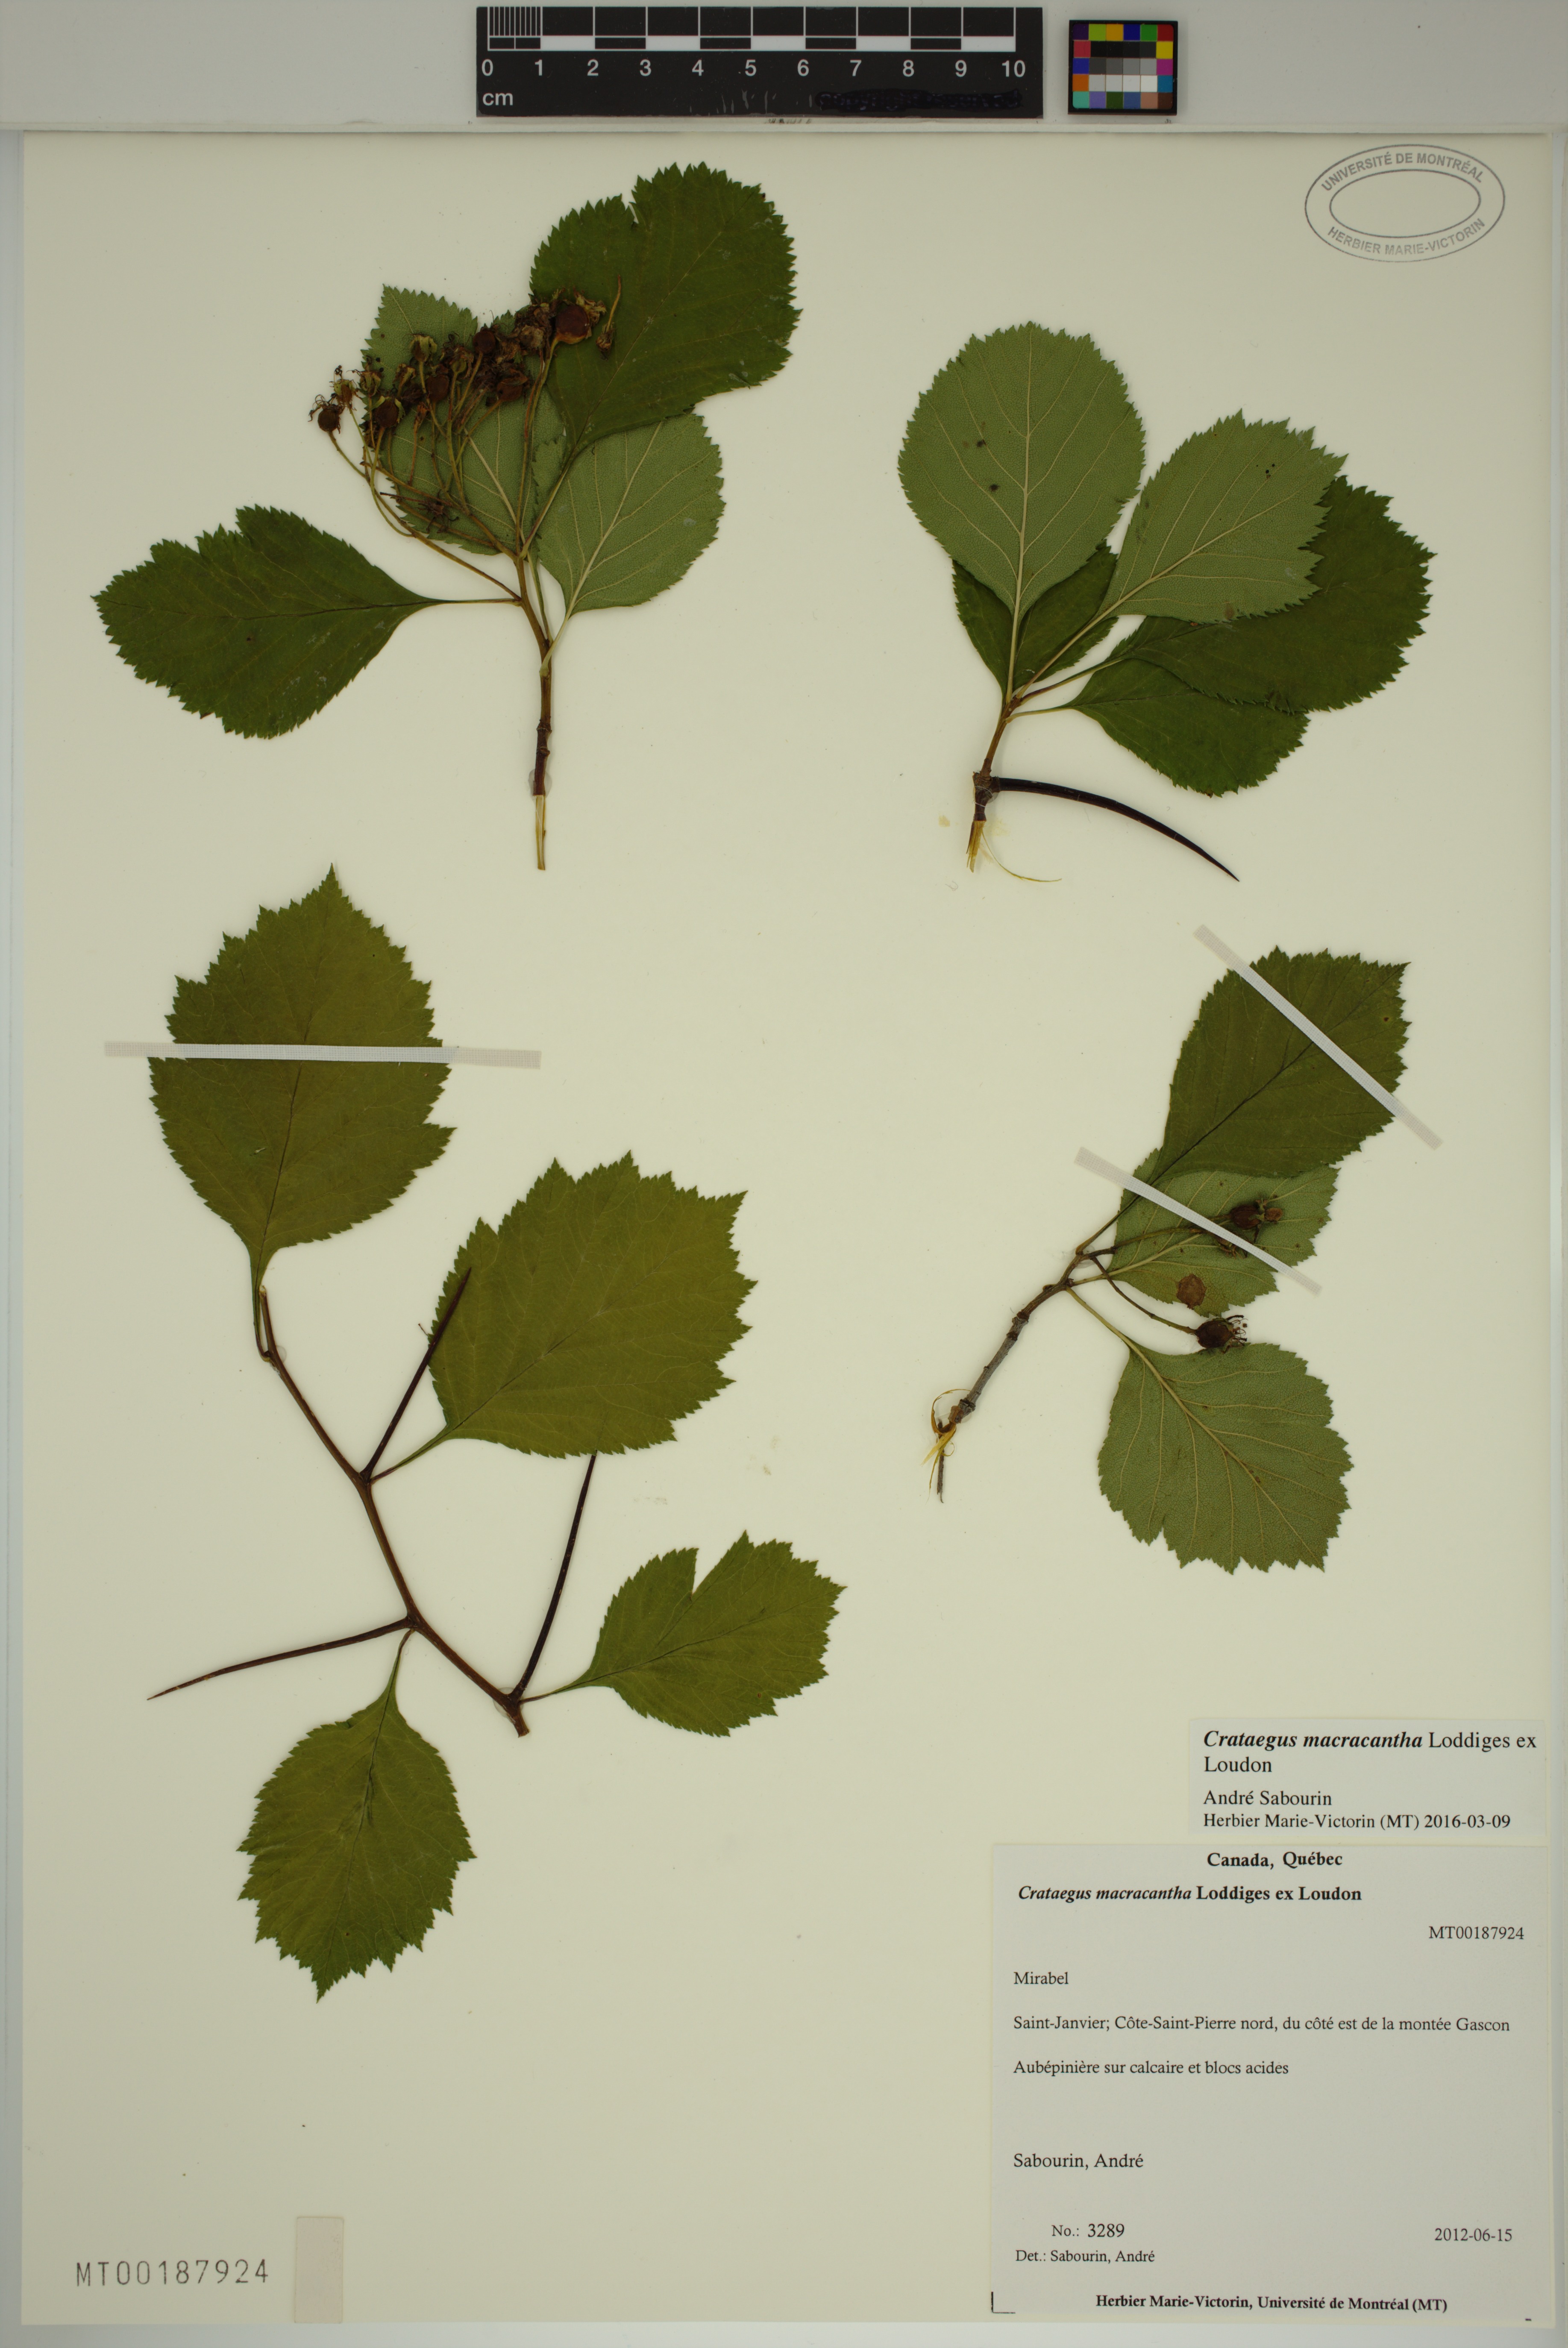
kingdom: Plantae
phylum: Tracheophyta
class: Magnoliopsida
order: Rosales
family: Rosaceae
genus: Crataegus
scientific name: Crataegus macracantha
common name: Large-thorn hawthorn
